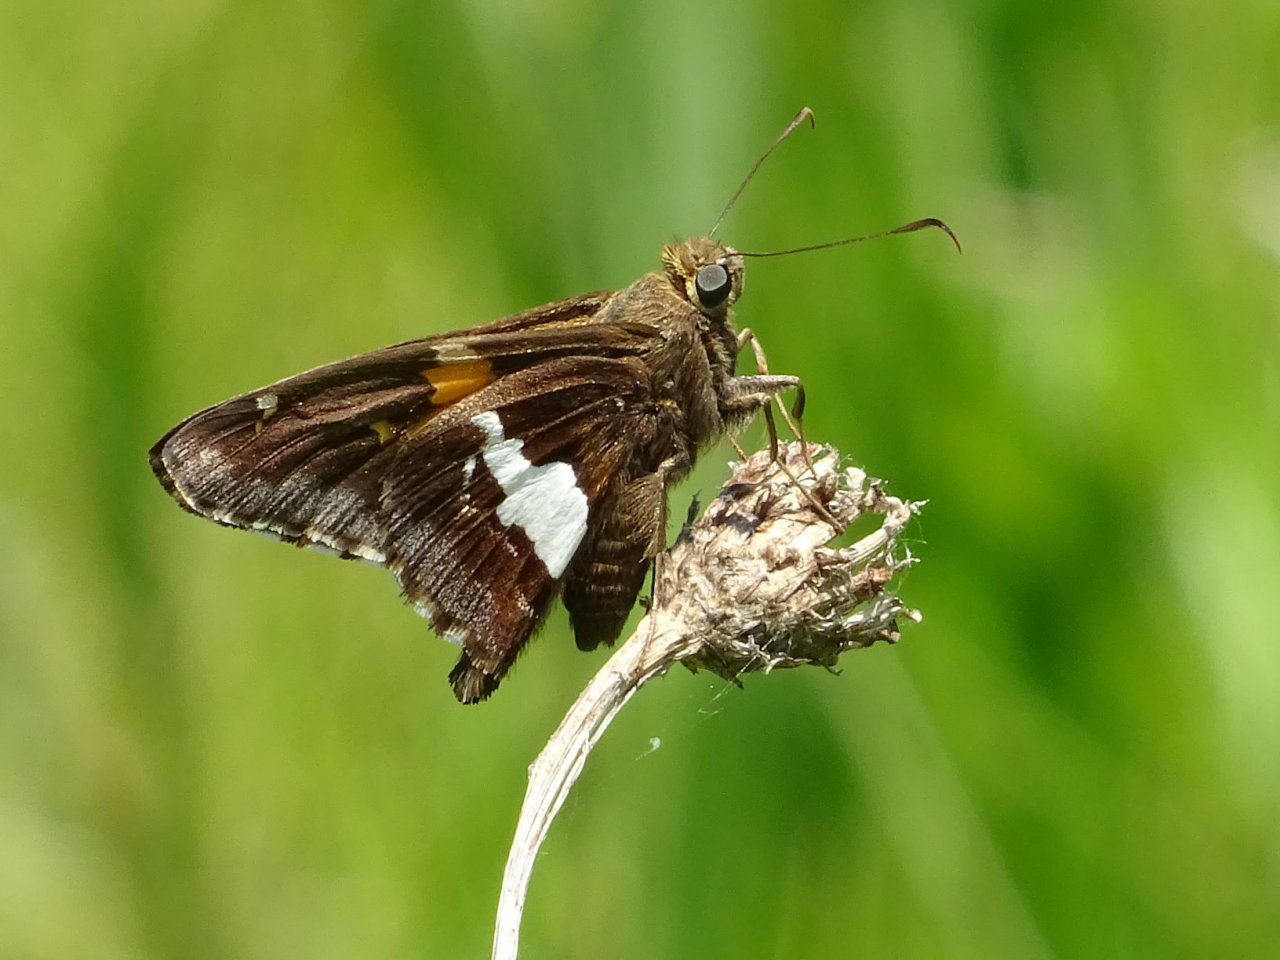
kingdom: Animalia
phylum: Arthropoda
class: Insecta
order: Lepidoptera
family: Hesperiidae
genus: Epargyreus
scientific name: Epargyreus clarus
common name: Silver-spotted Skipper
